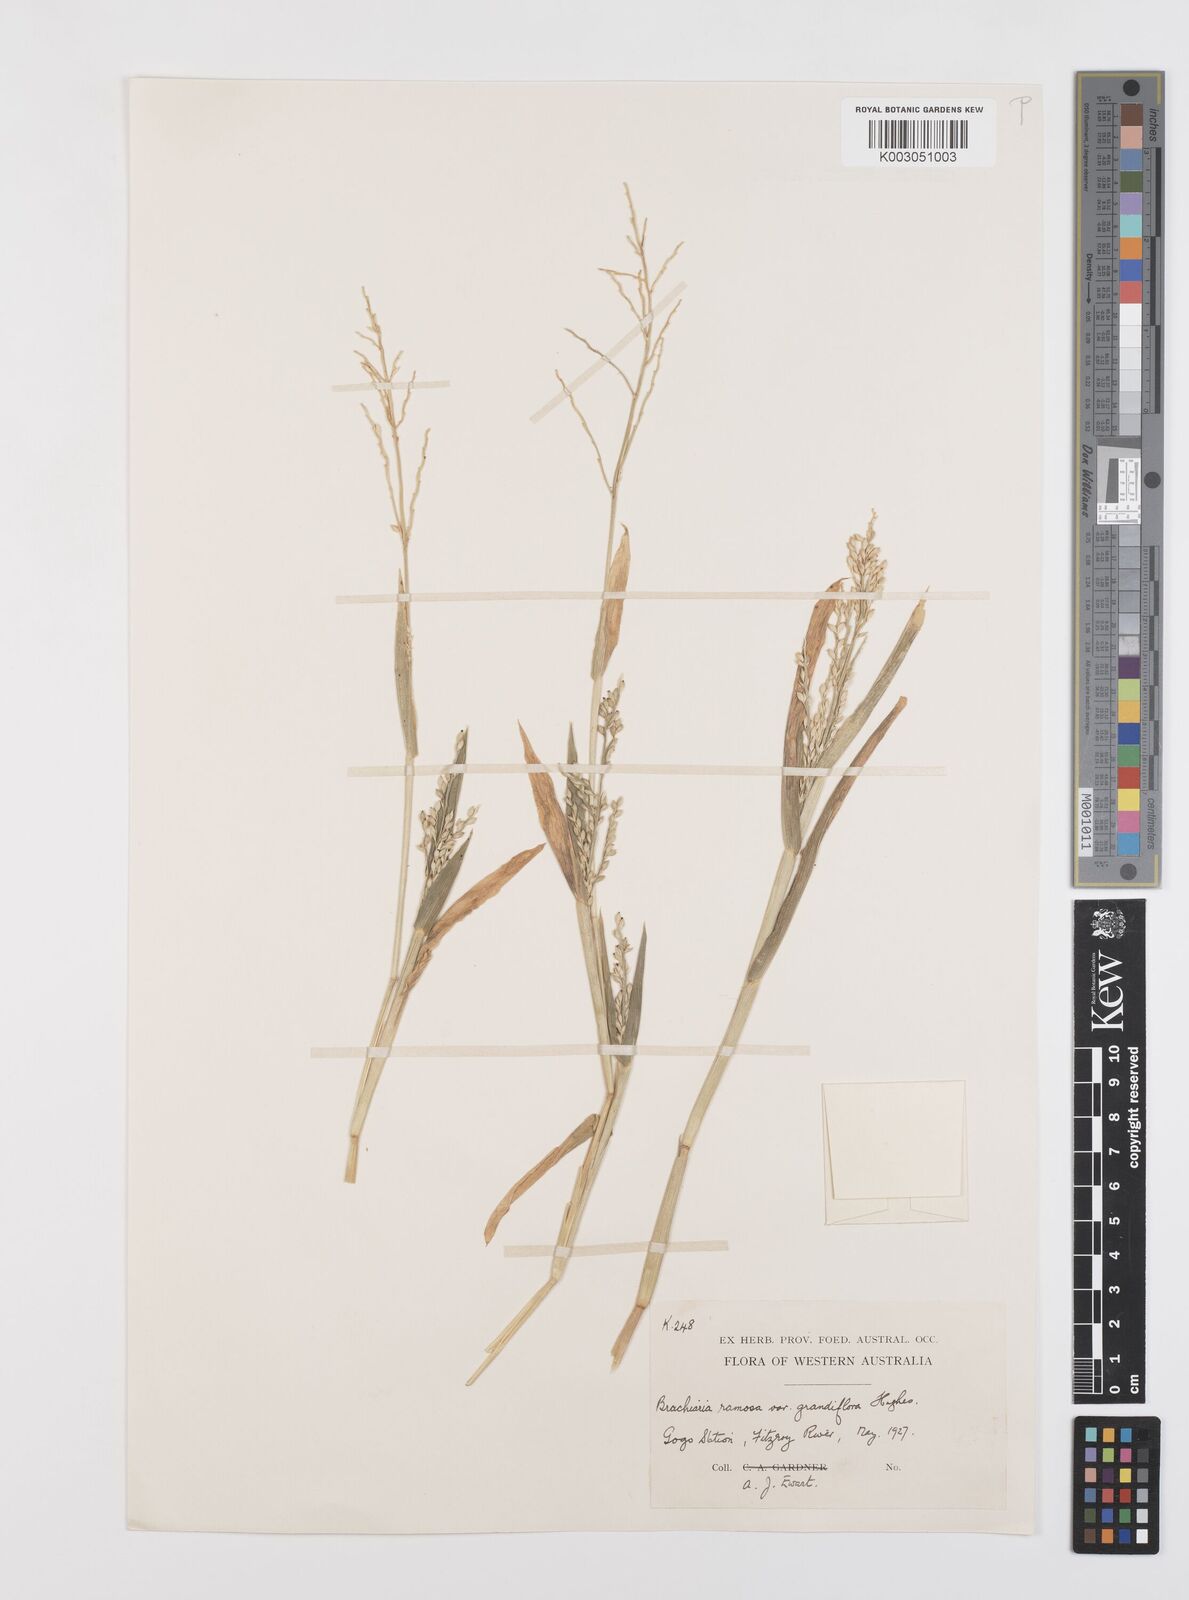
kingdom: Plantae
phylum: Tracheophyta
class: Liliopsida
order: Poales
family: Poaceae
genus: Urochloa
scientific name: Urochloa pubigera
